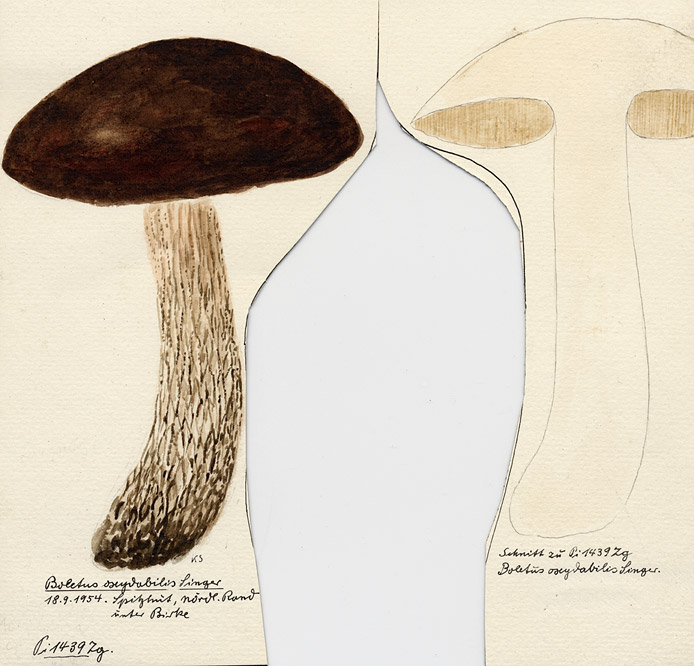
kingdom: Fungi
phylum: Basidiomycota
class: Agaricomycetes
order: Boletales
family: Boletaceae
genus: Leccinum
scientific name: Leccinum scabrum
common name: Blushing bolete
